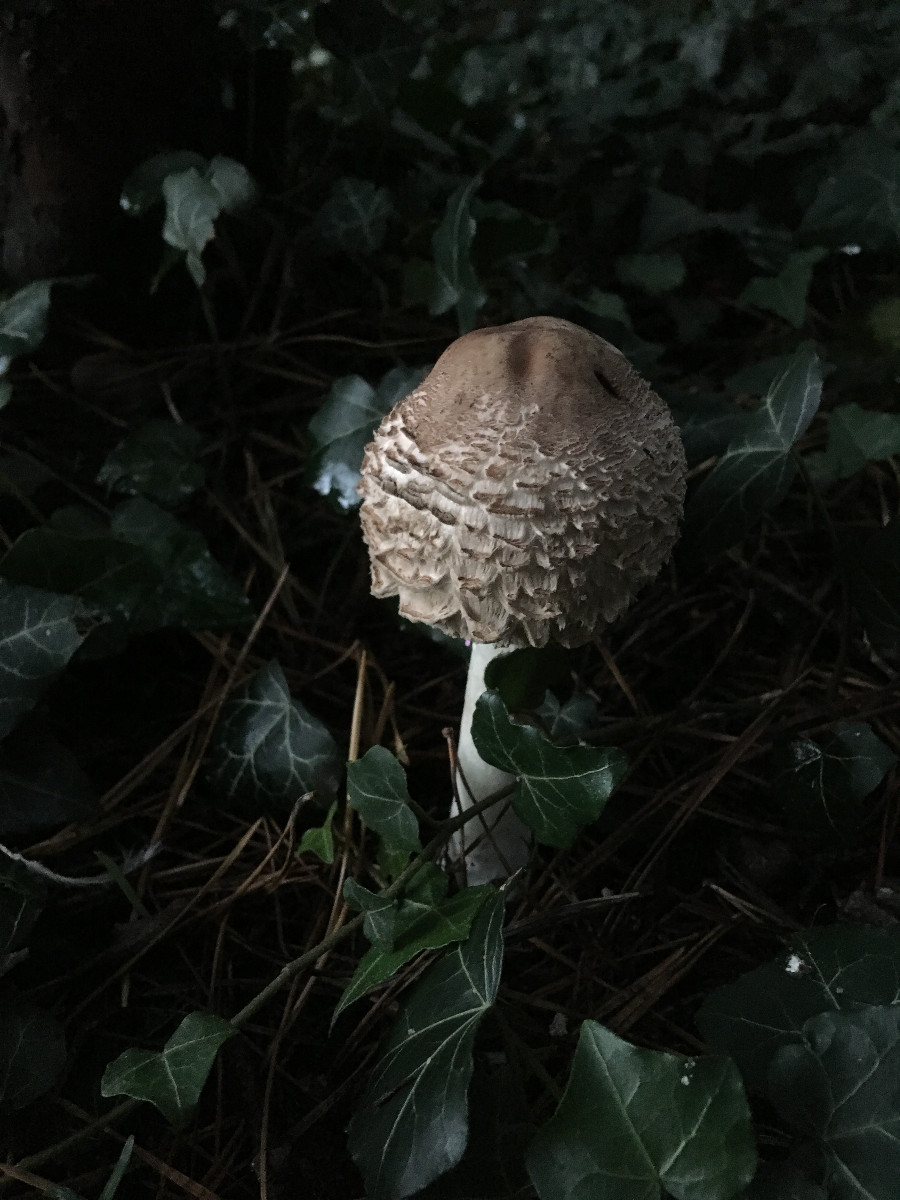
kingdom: Fungi
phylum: Basidiomycota
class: Agaricomycetes
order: Agaricales
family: Agaricaceae
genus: Chlorophyllum
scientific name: Chlorophyllum olivieri
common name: almindelig rabarberhat
